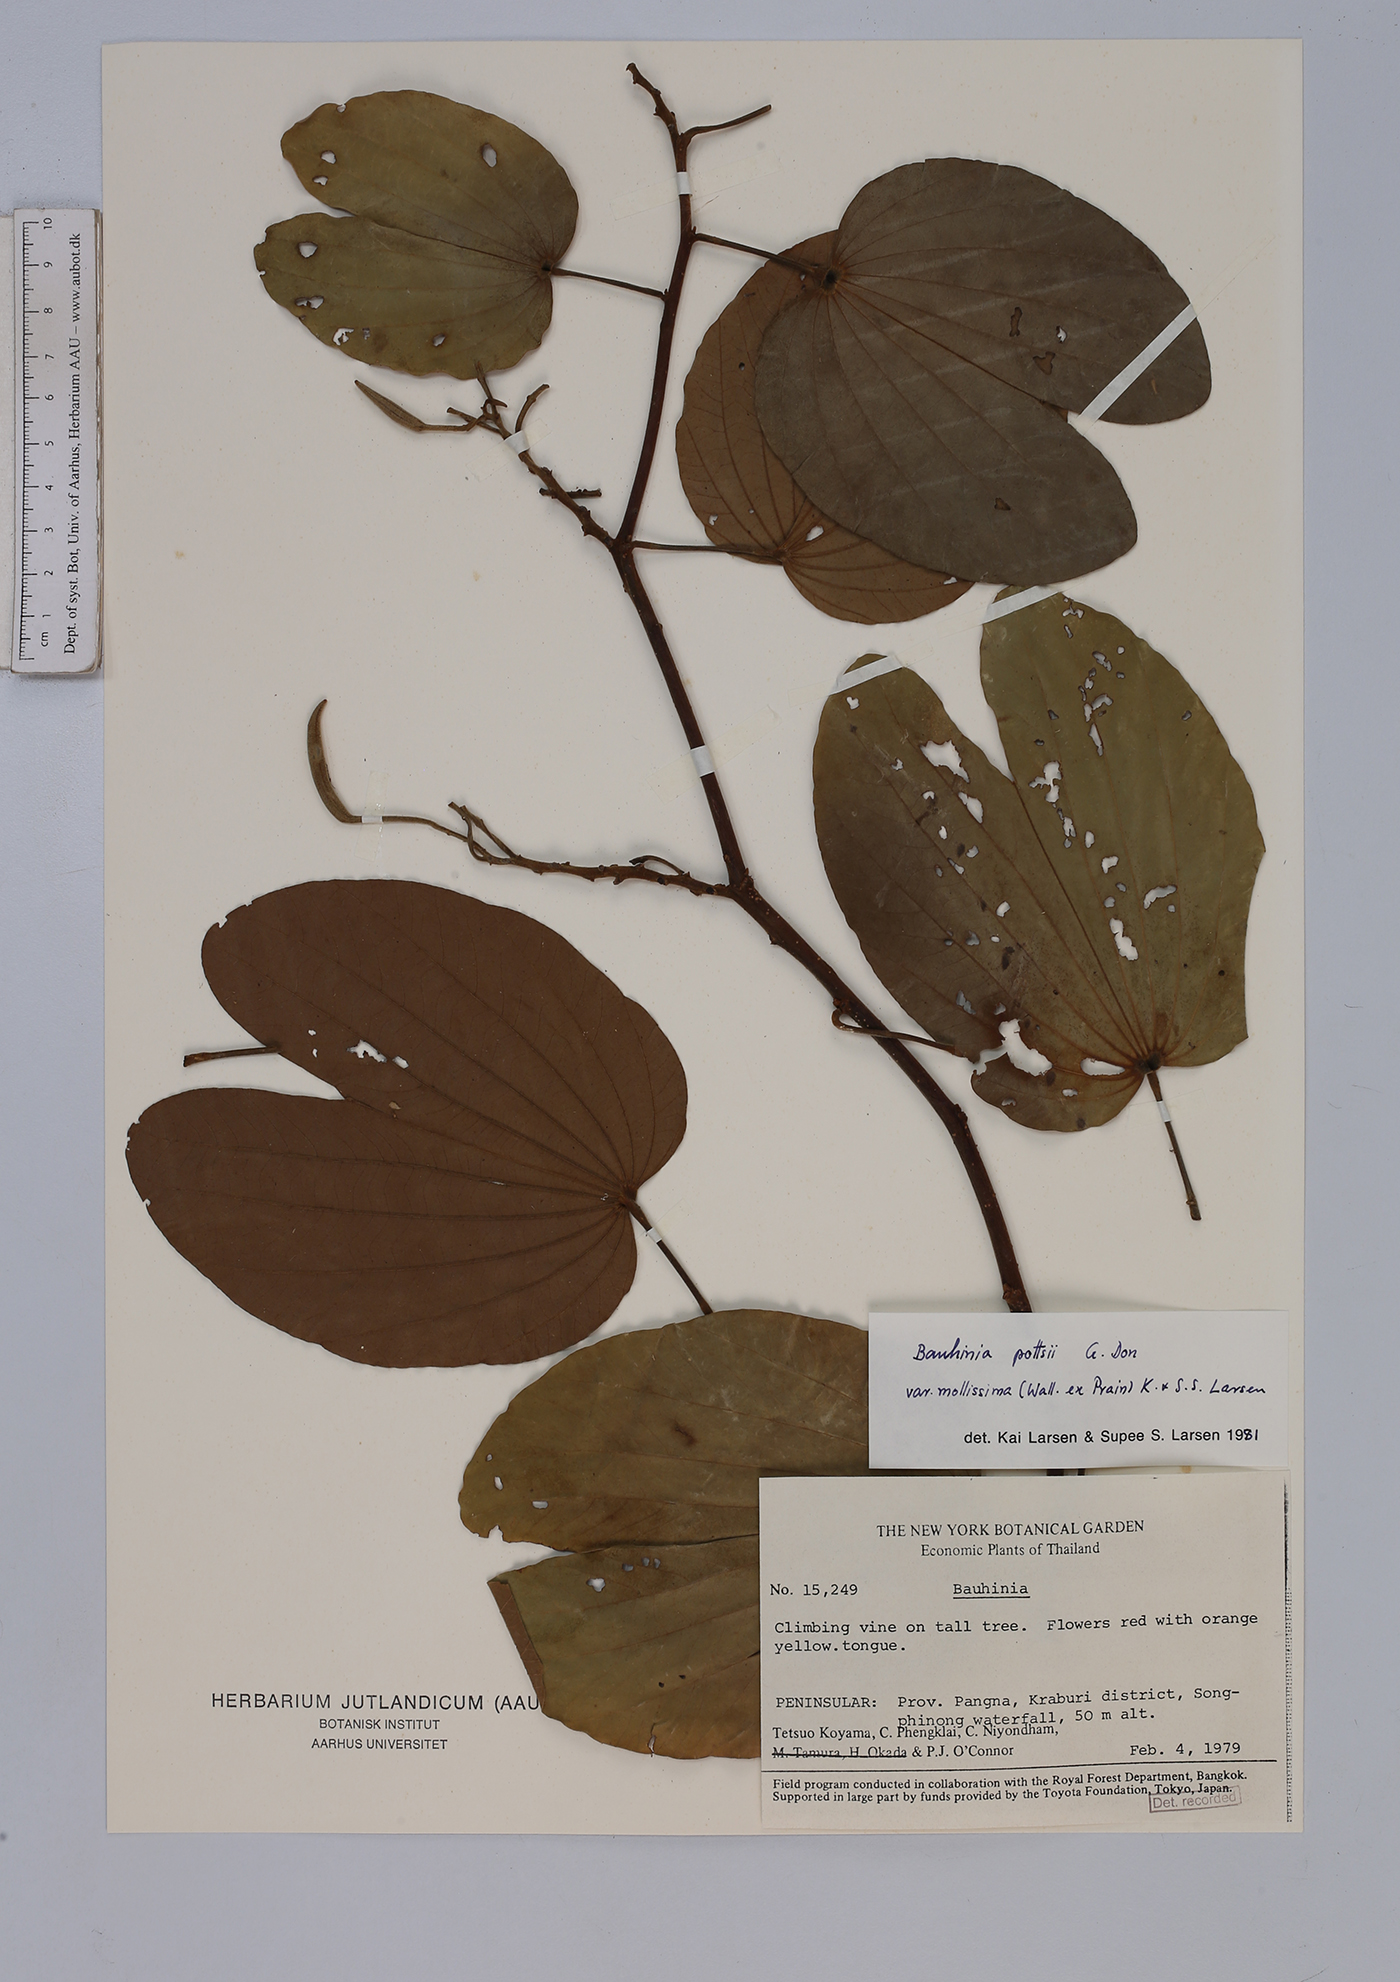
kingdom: Plantae
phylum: Tracheophyta
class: Magnoliopsida
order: Fabales
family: Fabaceae
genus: Bauhinia
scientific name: Bauhinia pottsii
